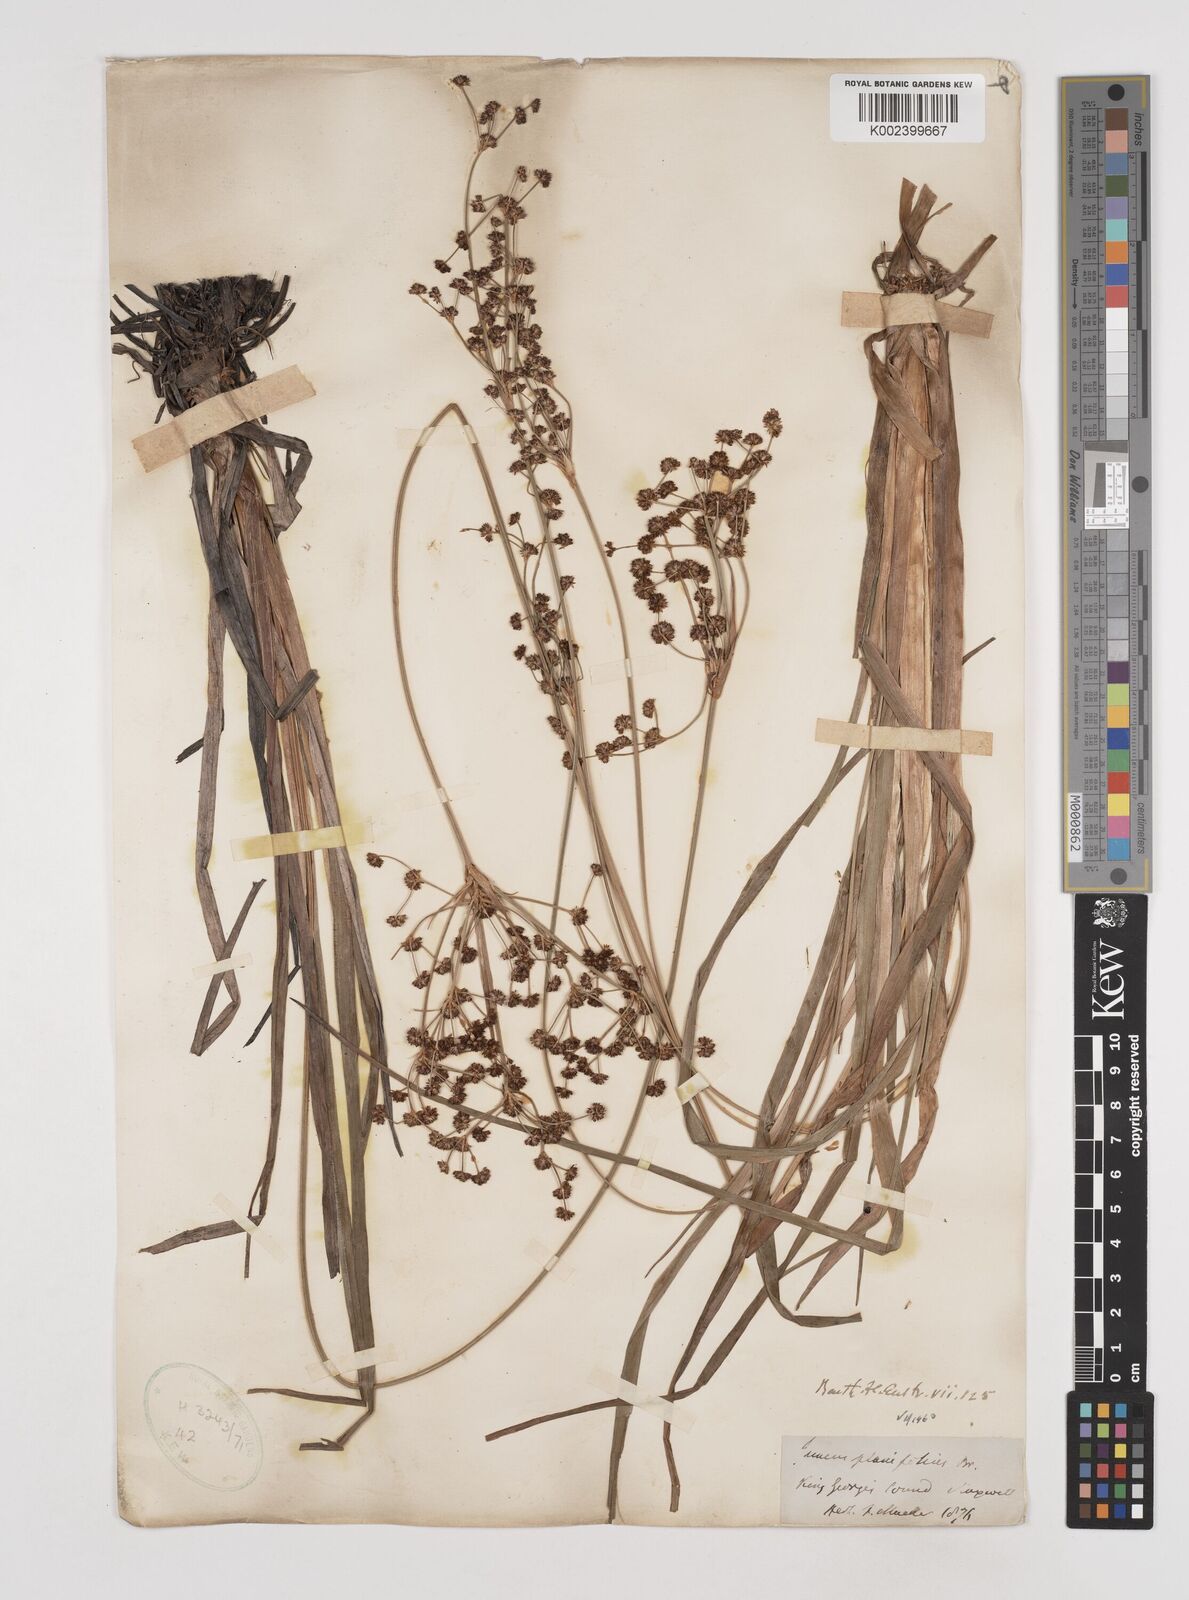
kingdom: Plantae
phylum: Tracheophyta
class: Liliopsida
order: Poales
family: Juncaceae
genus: Juncus
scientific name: Juncus planifolius
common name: Broadleaf rush
